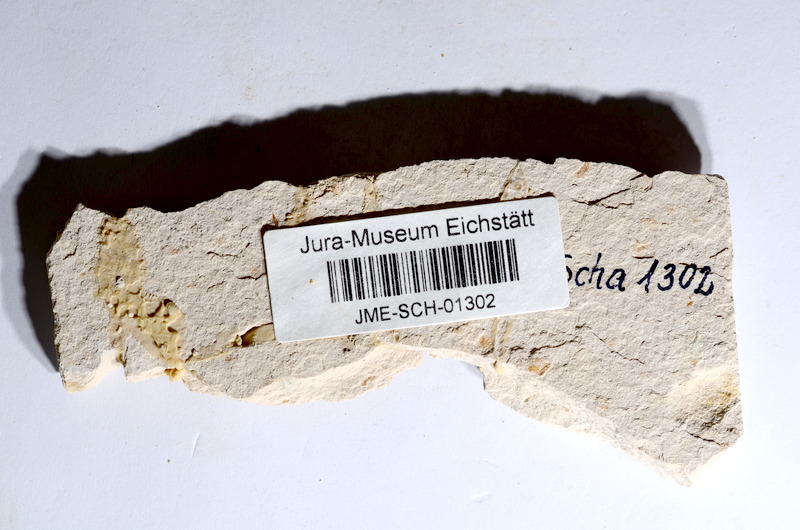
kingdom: Animalia
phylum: Chordata
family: Ascalaboidae
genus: Tharsis
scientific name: Tharsis dubius
